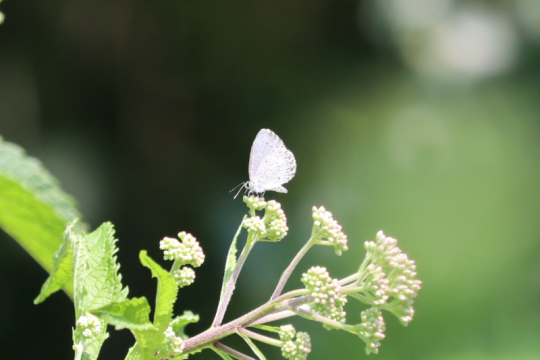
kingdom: Animalia
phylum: Arthropoda
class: Insecta
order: Lepidoptera
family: Lycaenidae
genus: Cyaniris
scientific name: Cyaniris neglecta
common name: Summer Azure
